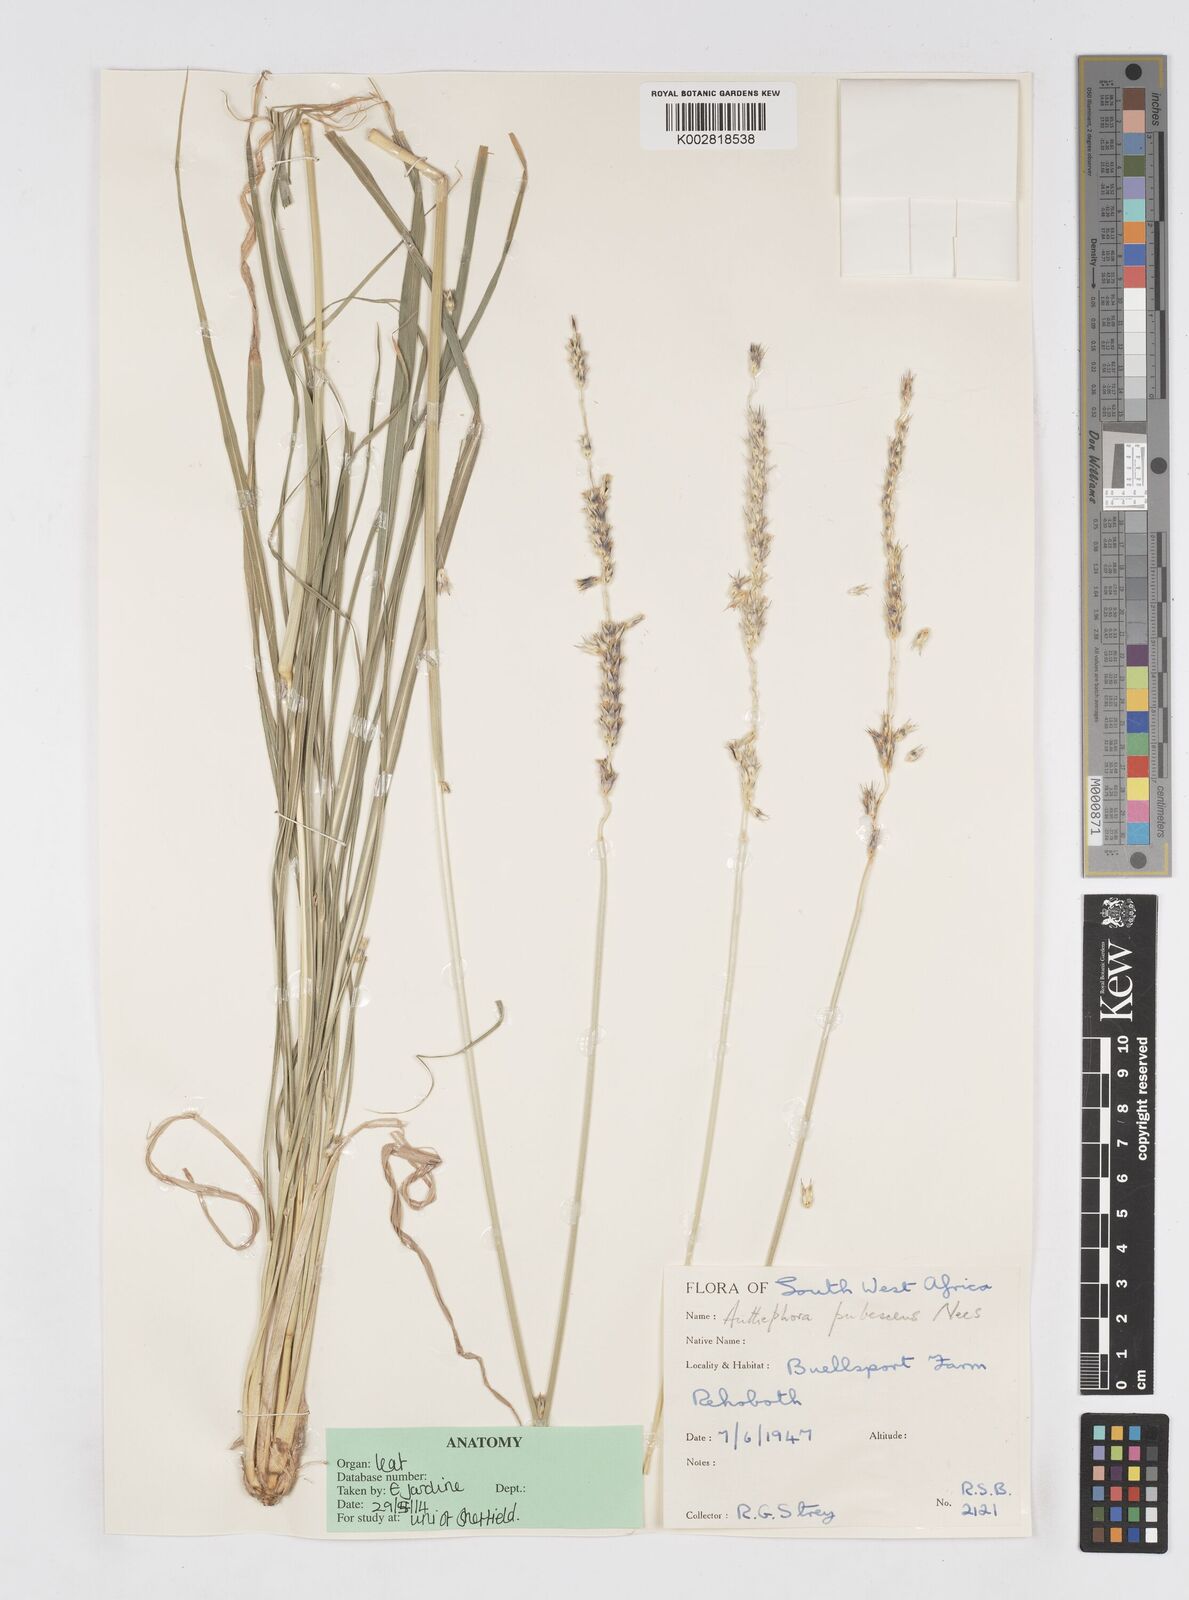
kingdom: Plantae
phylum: Tracheophyta
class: Liliopsida
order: Poales
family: Poaceae
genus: Anthephora
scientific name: Anthephora pubescens
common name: Wool grass
